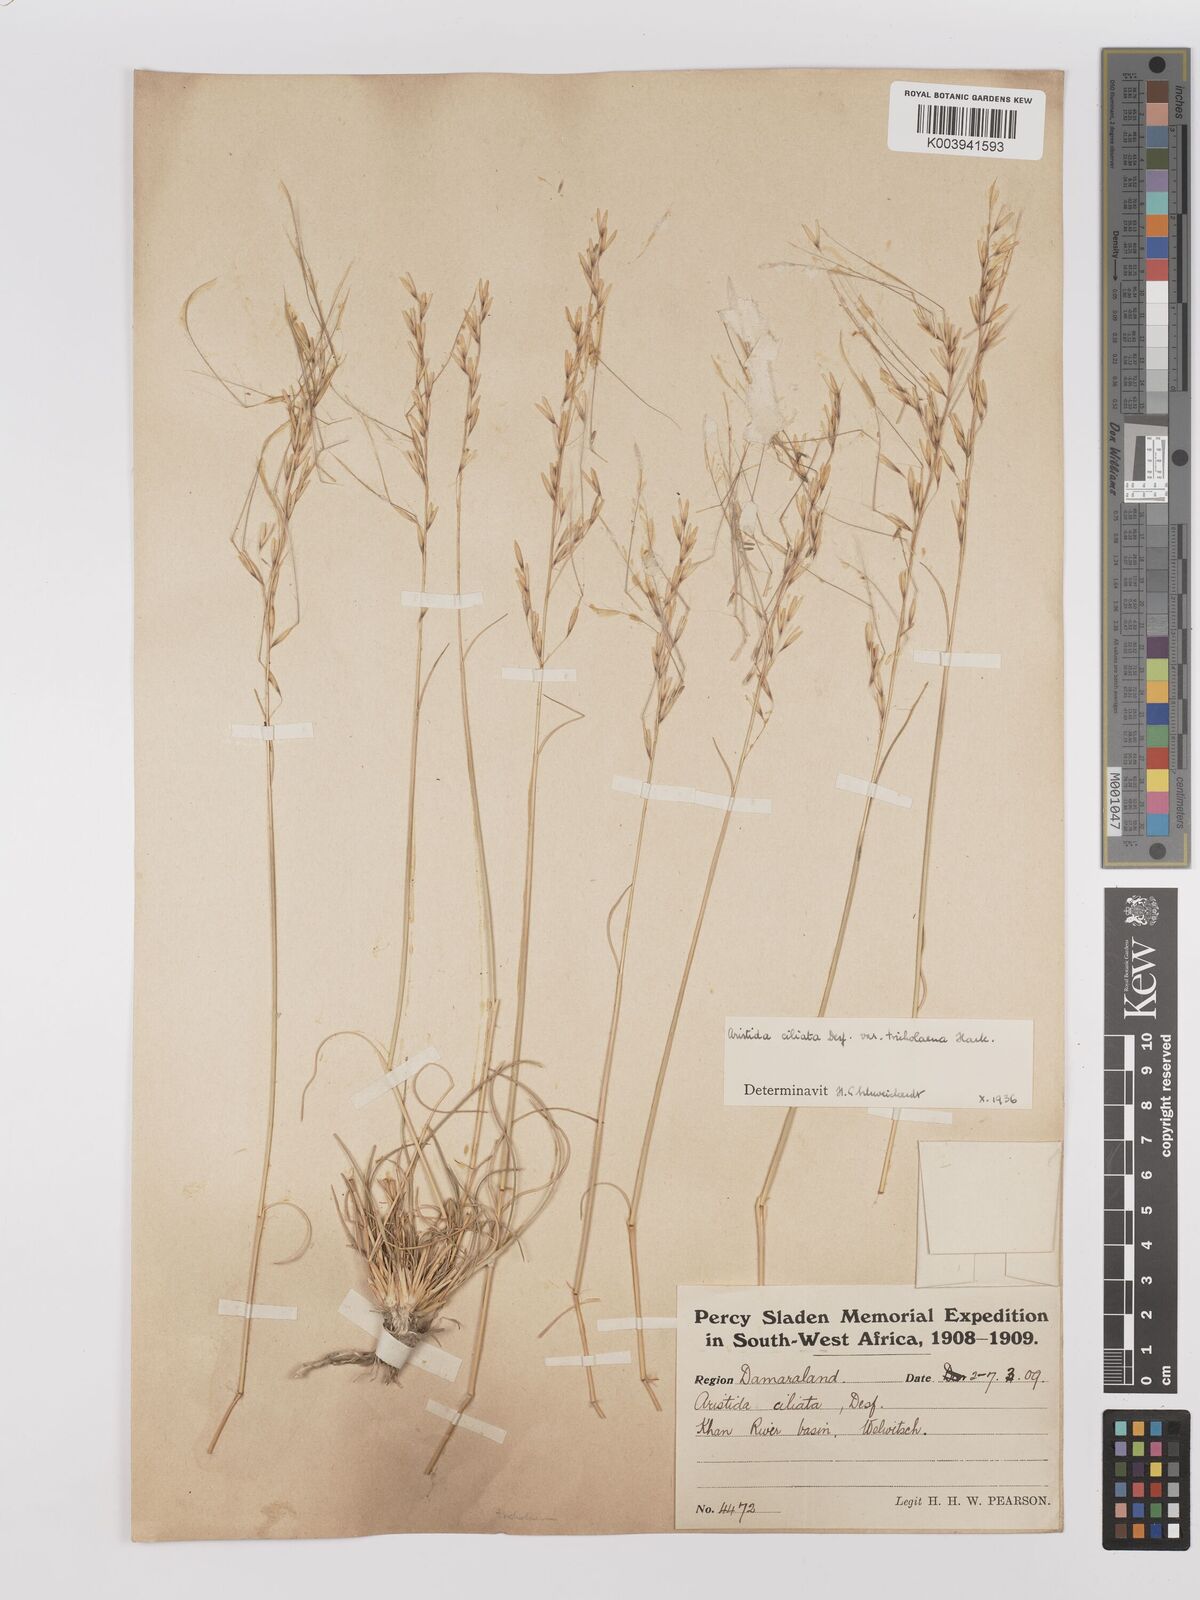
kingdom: Plantae
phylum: Tracheophyta
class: Liliopsida
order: Poales
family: Poaceae
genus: Stipagrostis
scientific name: Stipagrostis ciliata
